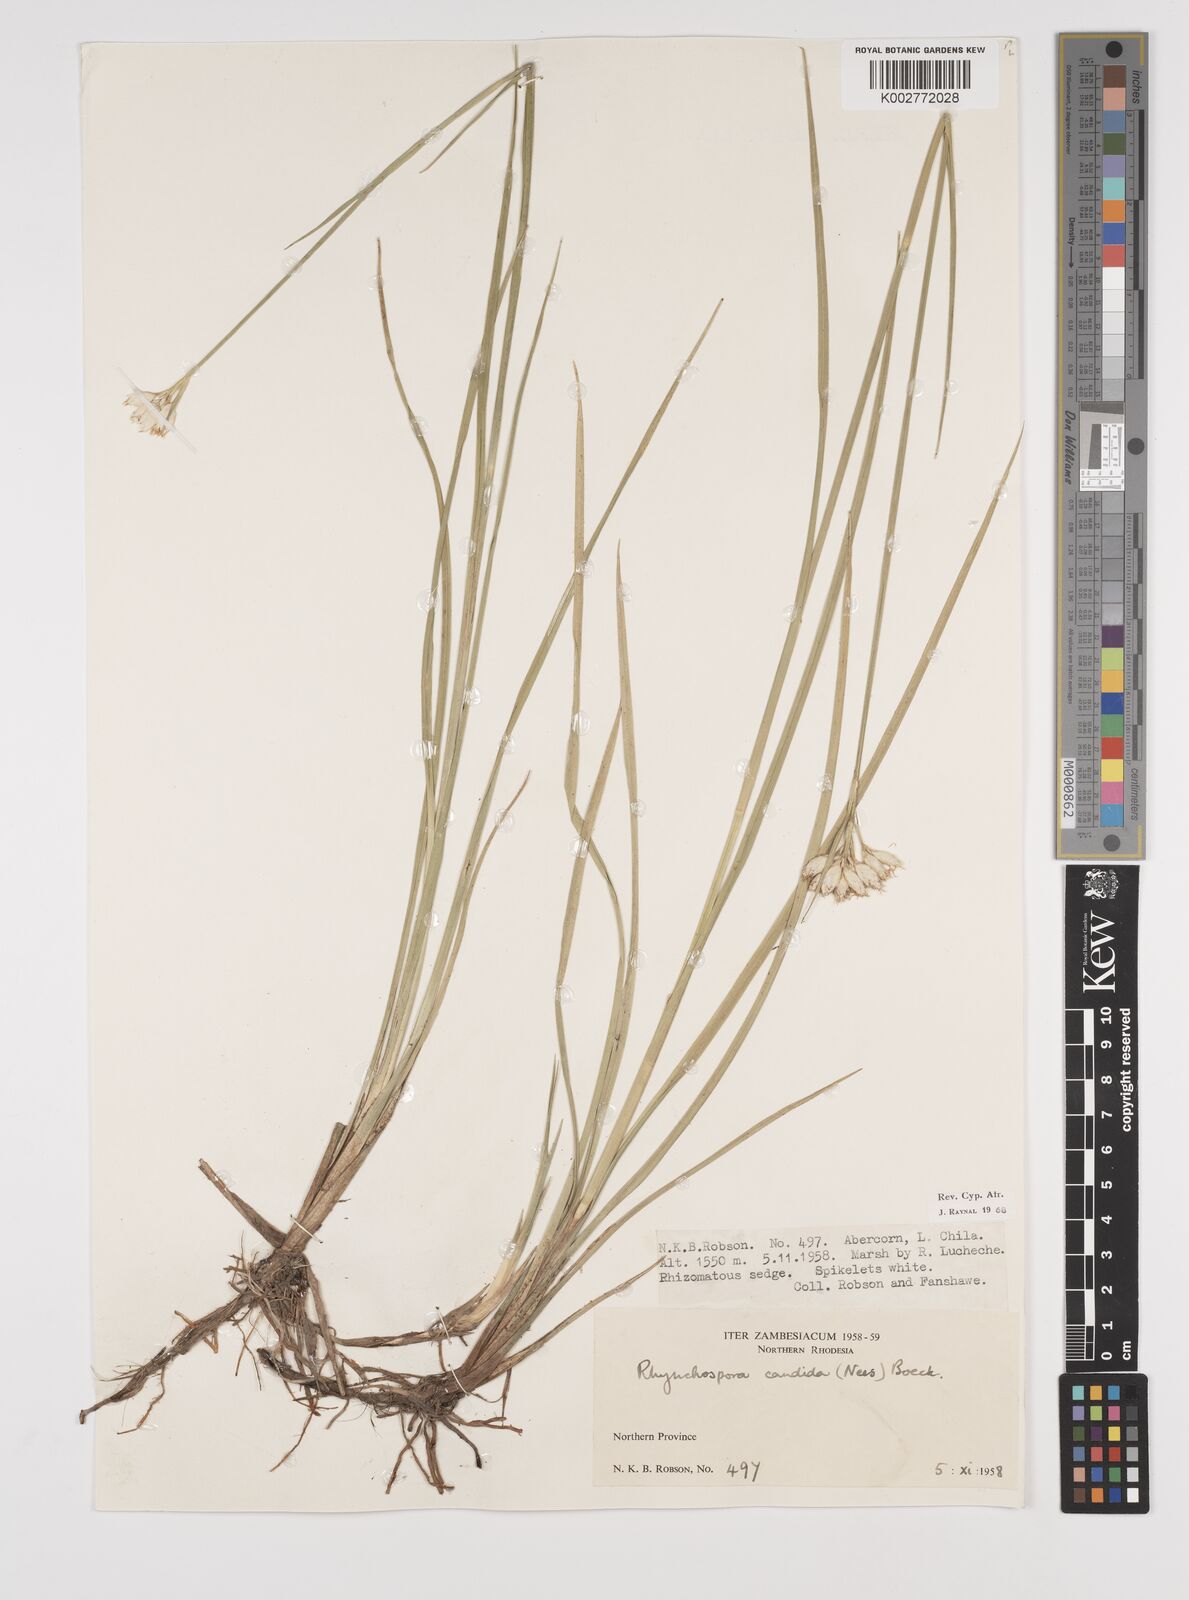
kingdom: Plantae
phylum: Tracheophyta
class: Liliopsida
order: Poales
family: Cyperaceae
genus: Rhynchospora
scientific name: Rhynchospora candida
